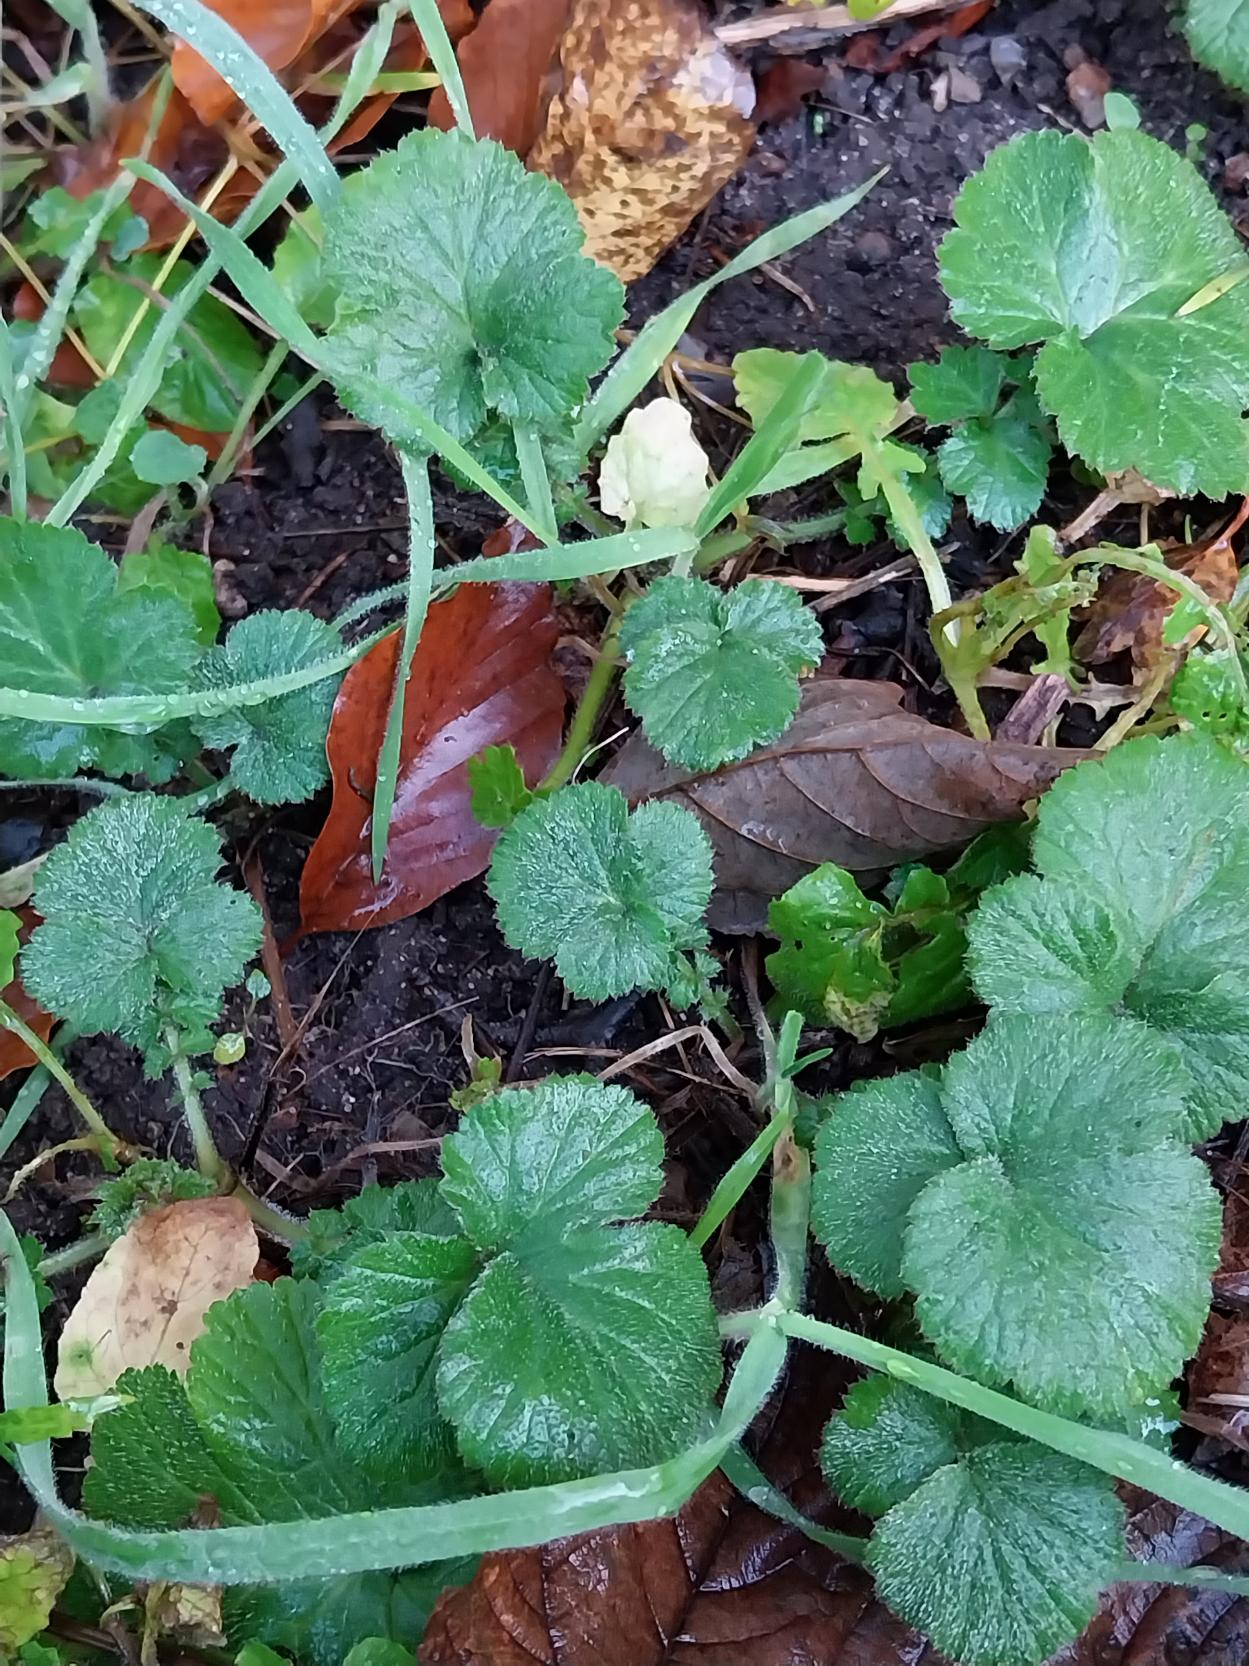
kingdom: Plantae
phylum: Tracheophyta
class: Magnoliopsida
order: Rosales
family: Rosaceae
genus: Geum
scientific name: Geum urbanum
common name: Feber-nellikerod
